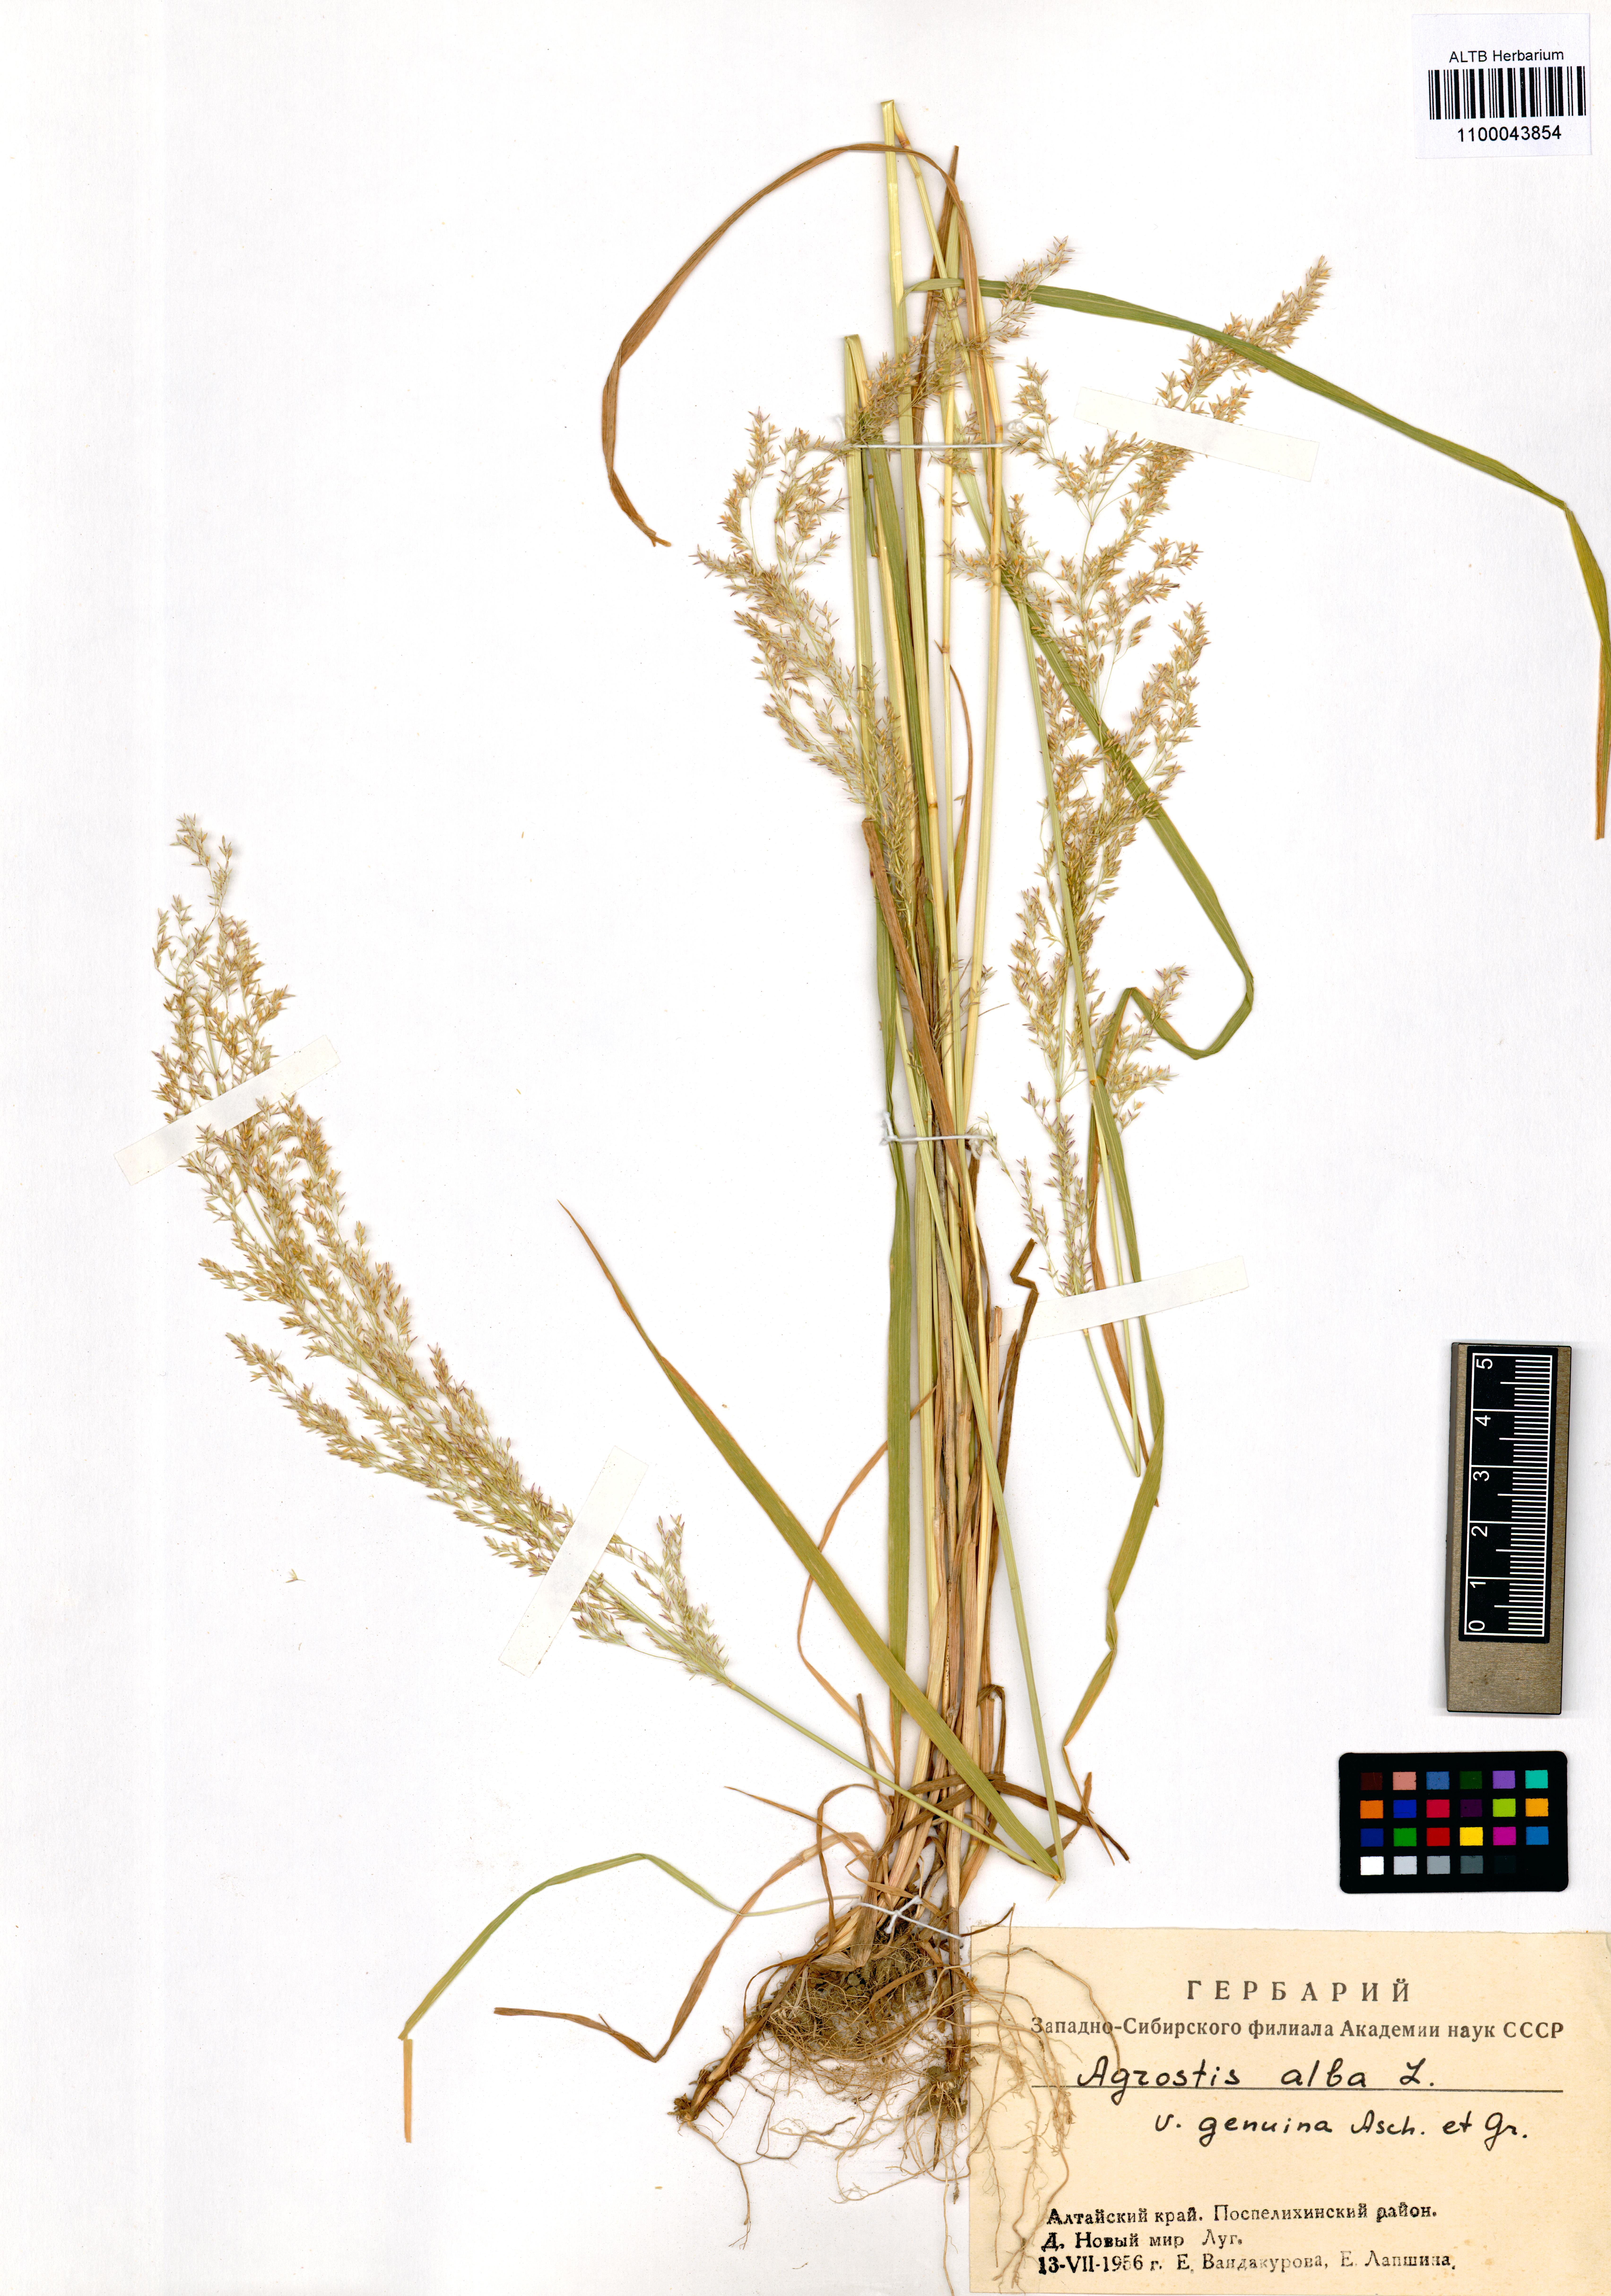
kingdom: Plantae
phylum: Tracheophyta
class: Liliopsida
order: Poales
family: Poaceae
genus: Agrostis
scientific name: Agrostis gigantea
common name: Black bent
